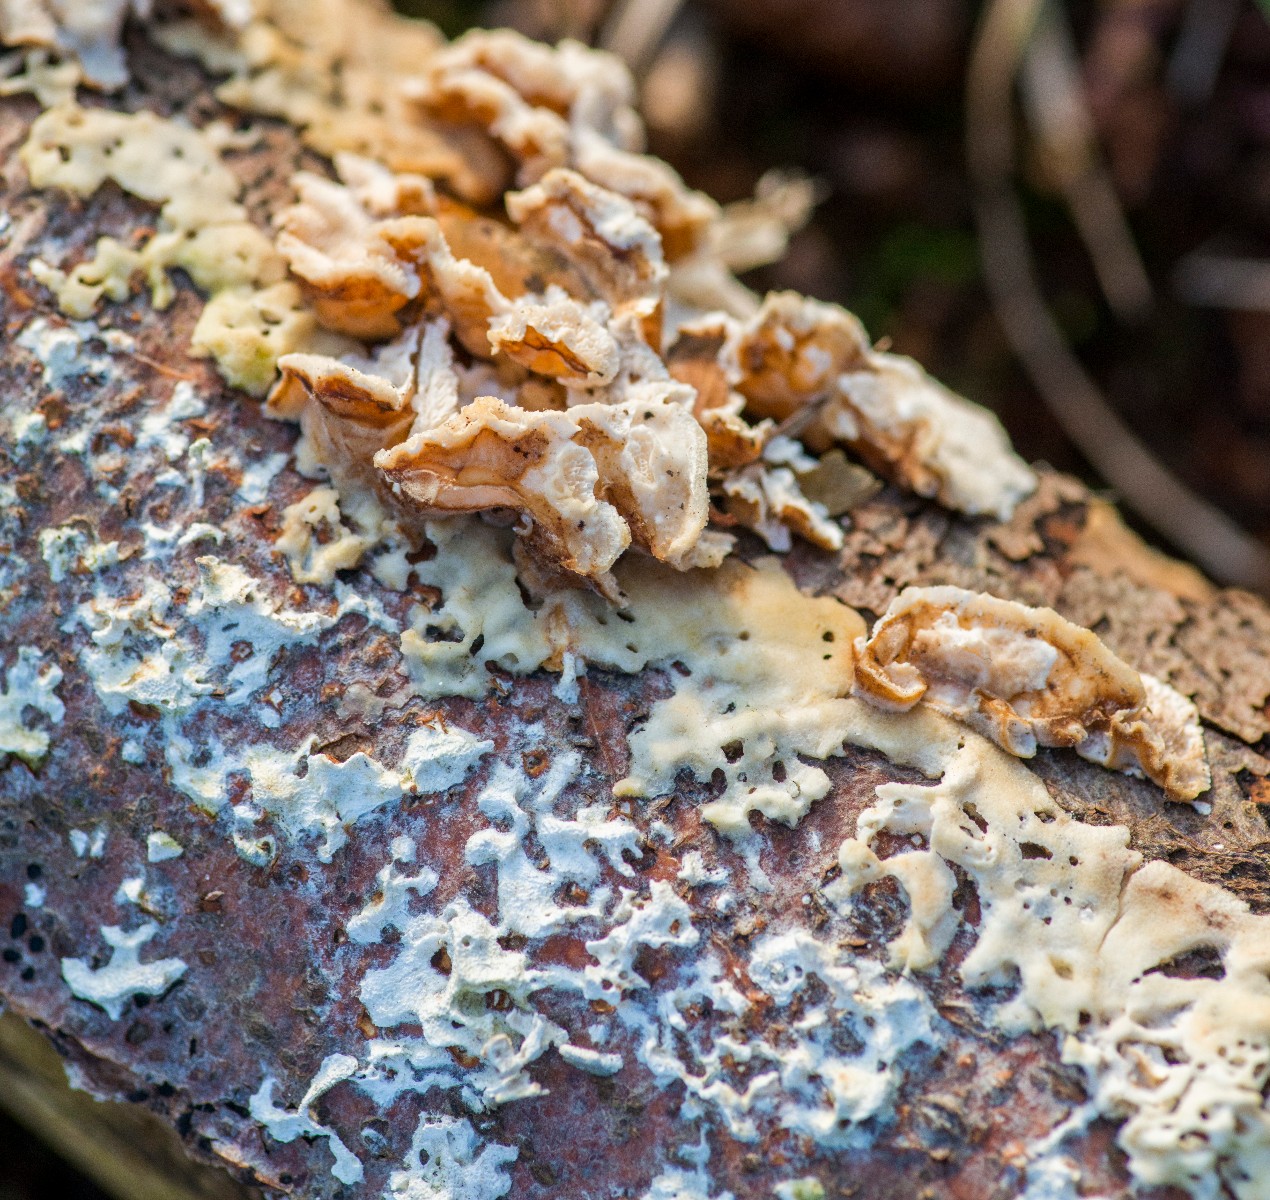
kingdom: Fungi
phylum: Basidiomycota
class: Agaricomycetes
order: Polyporales
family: Polyporaceae
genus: Trametes
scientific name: Trametes versicolor
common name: broget læderporesvamp
